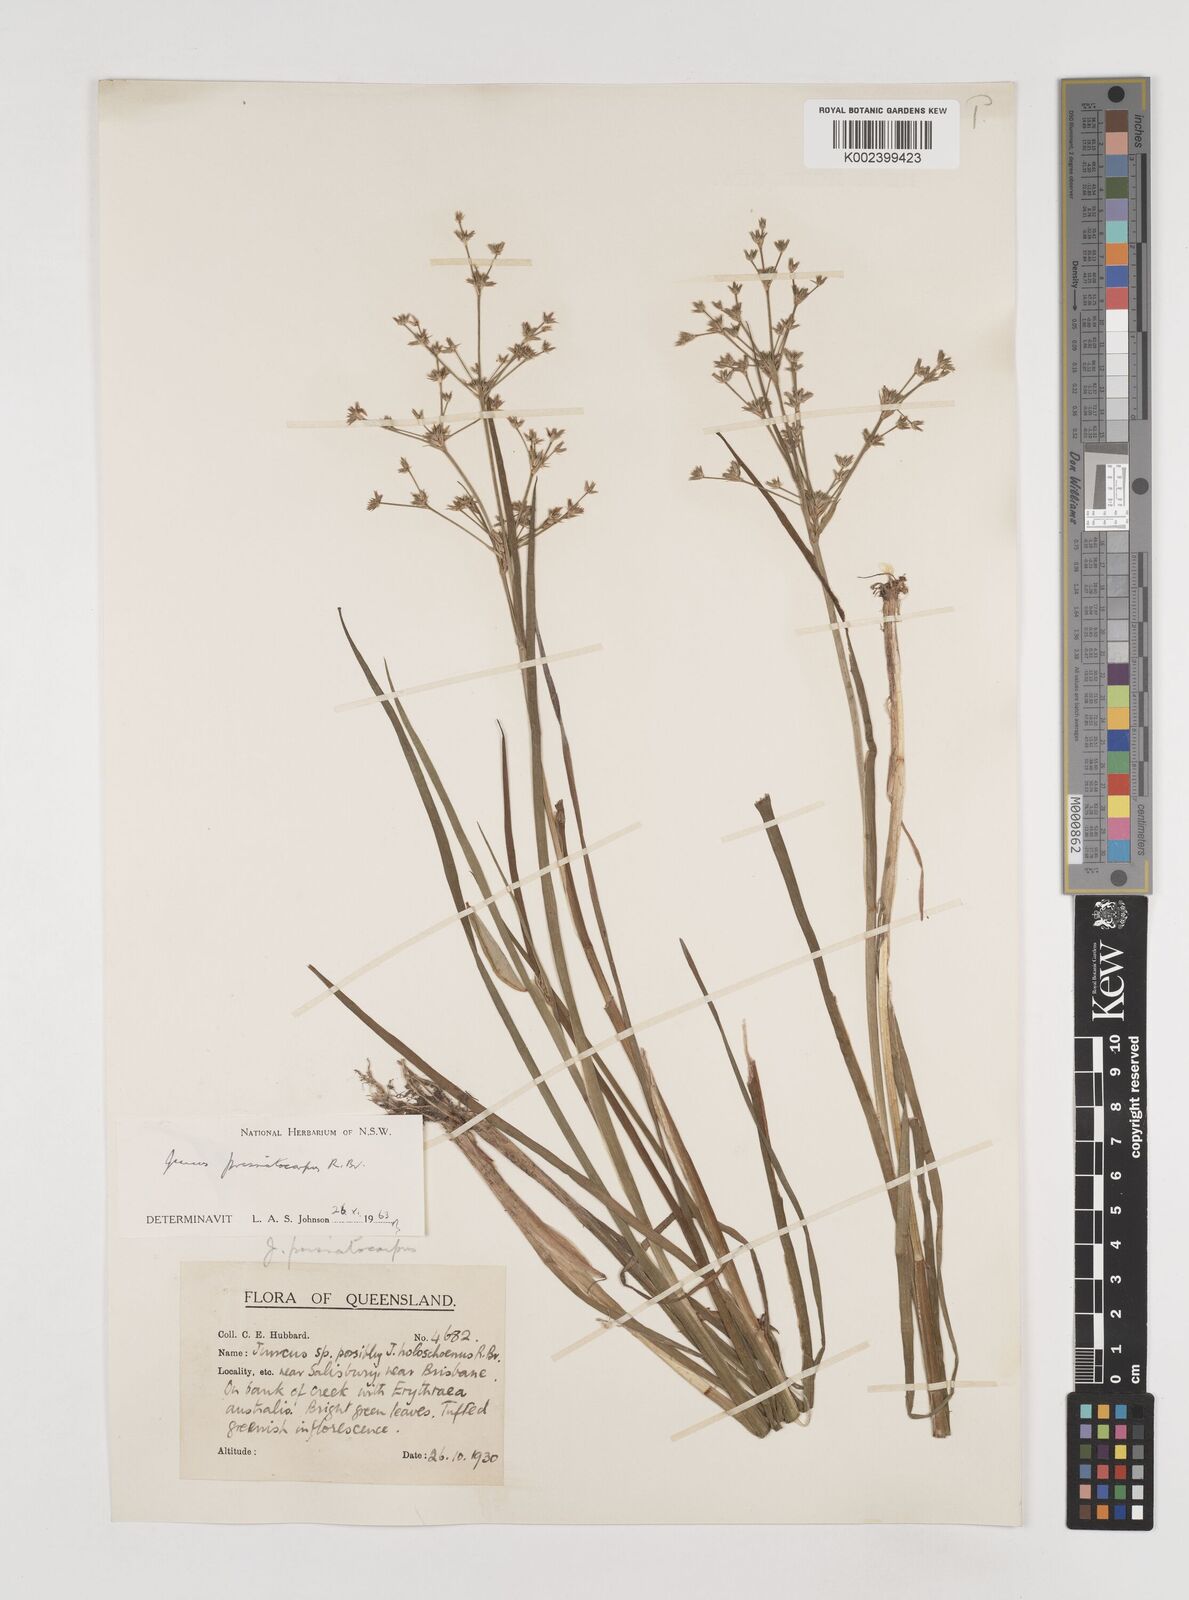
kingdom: Plantae
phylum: Tracheophyta
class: Liliopsida
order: Poales
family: Juncaceae
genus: Juncus
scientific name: Juncus prismatocarpus
